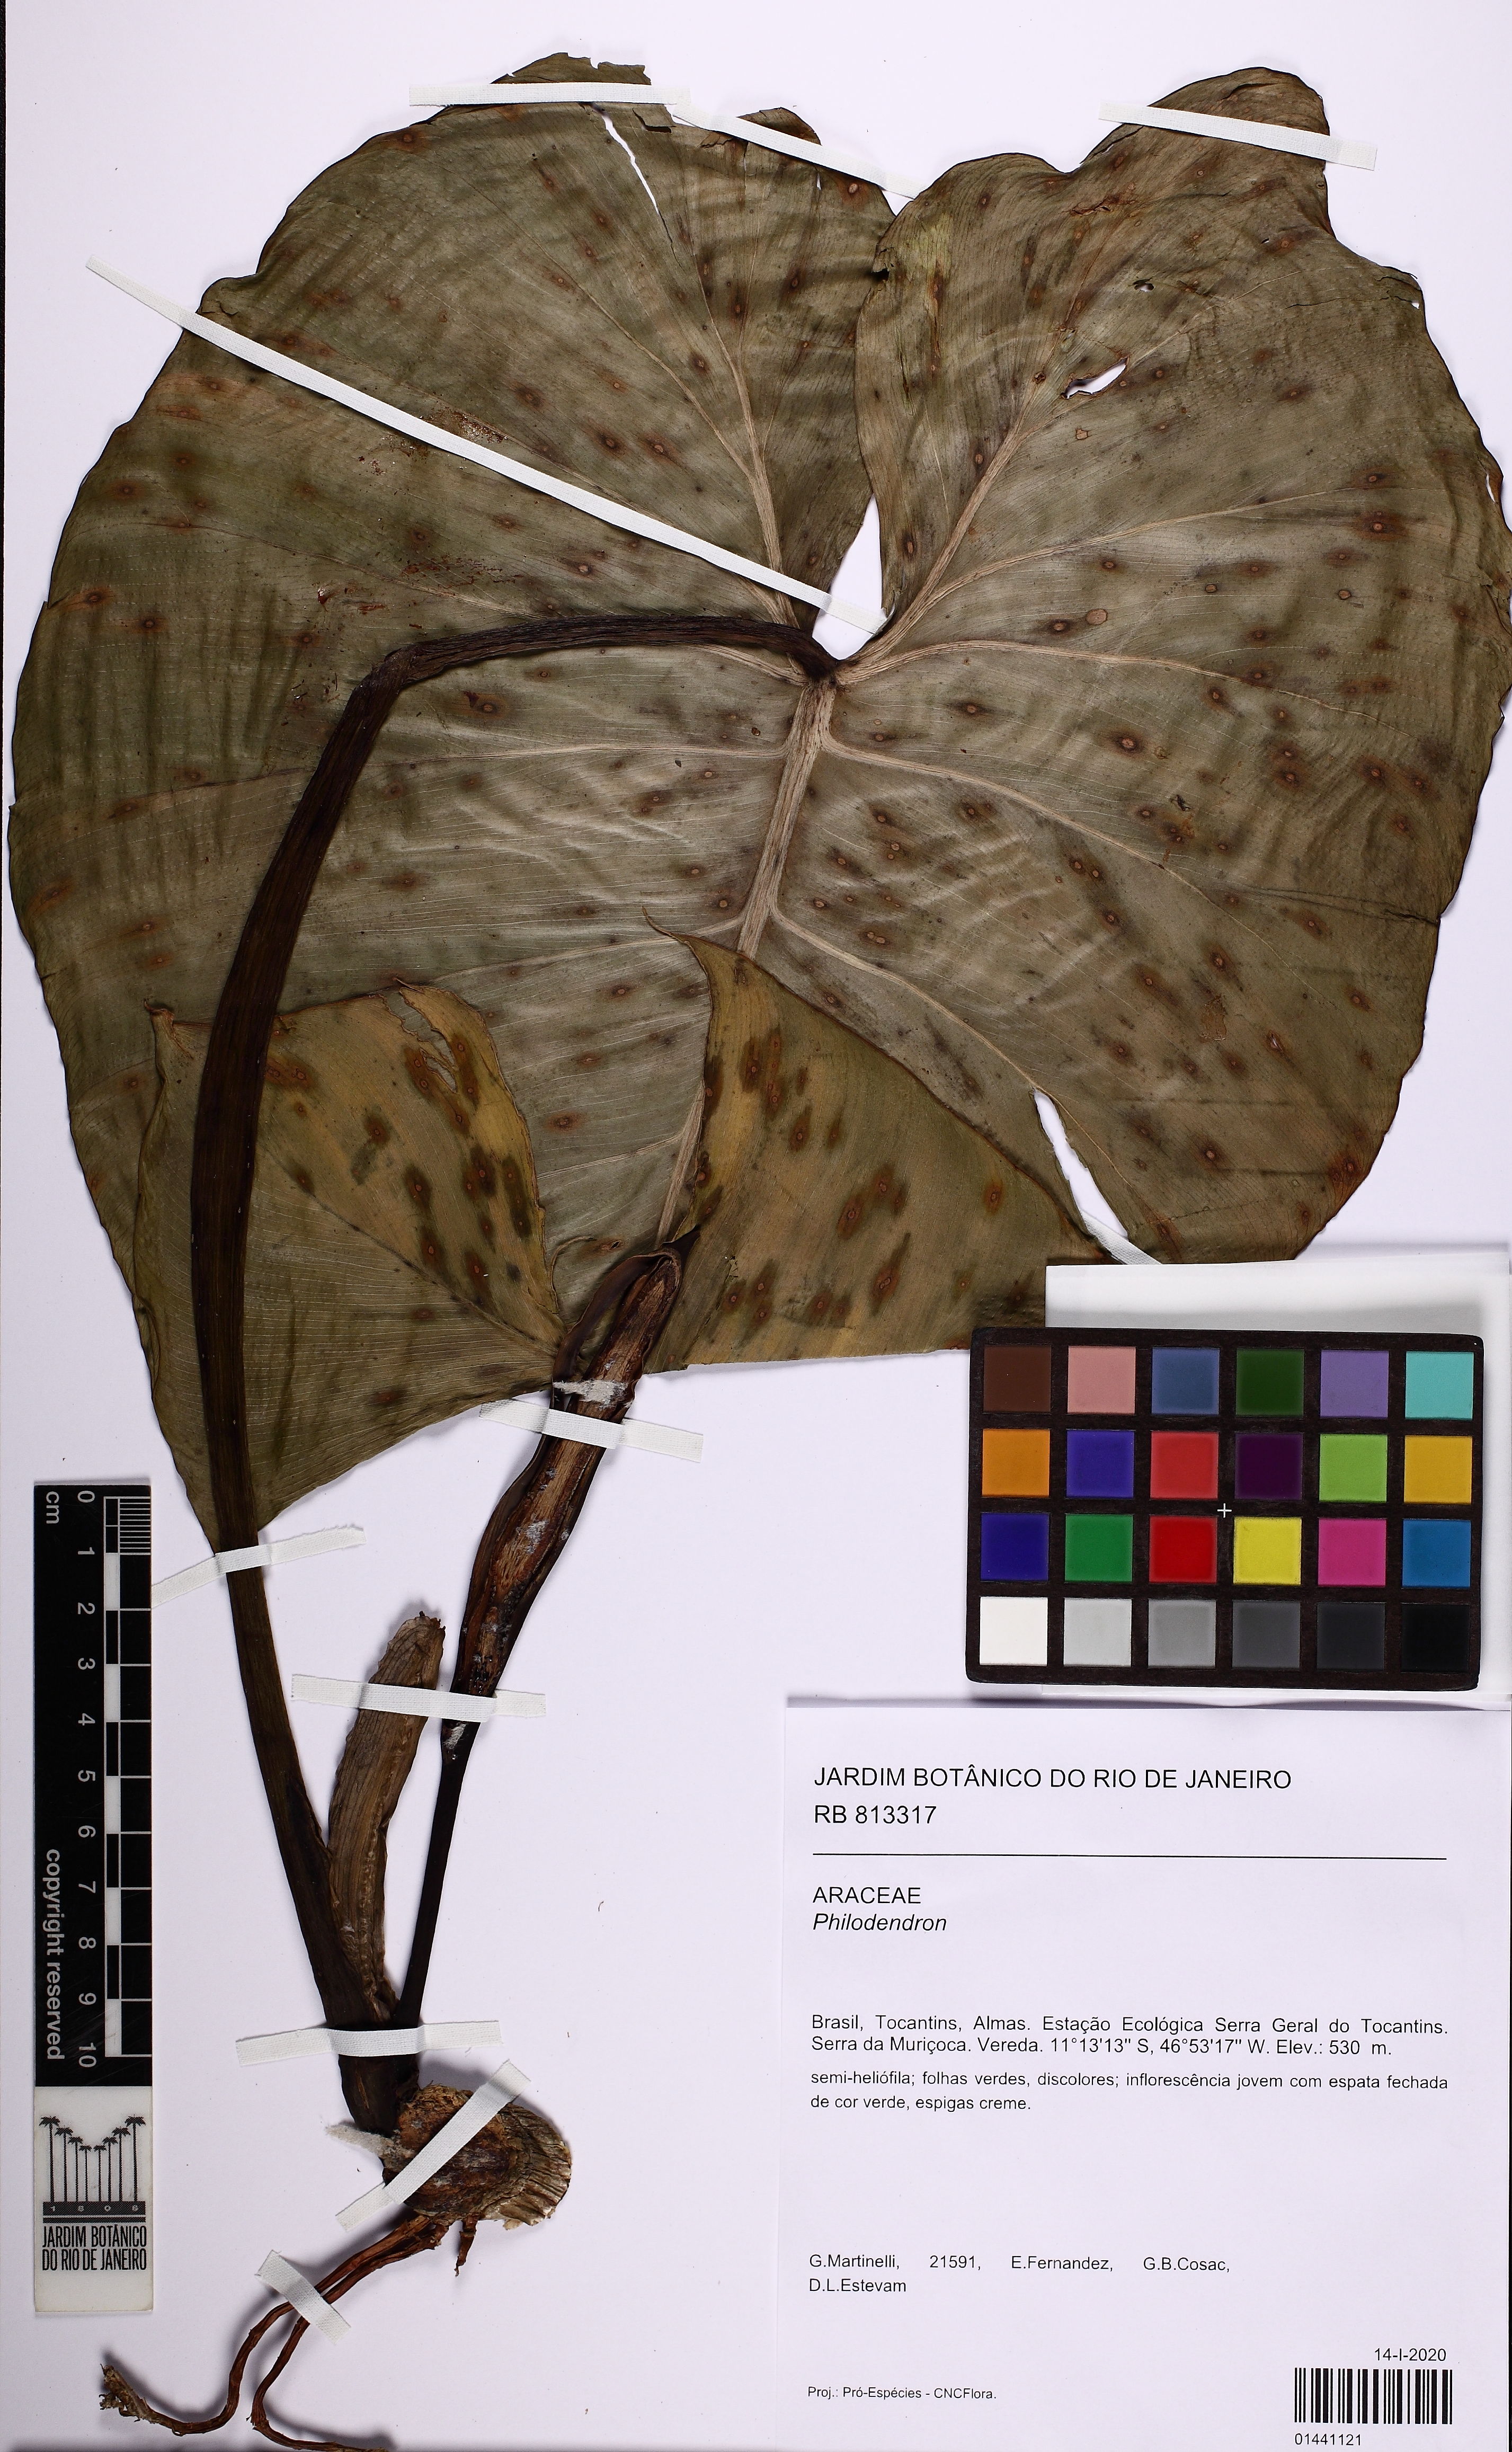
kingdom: Plantae
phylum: Tracheophyta
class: Liliopsida
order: Alismatales
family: Araceae
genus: Philodendron
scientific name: Philodendron
